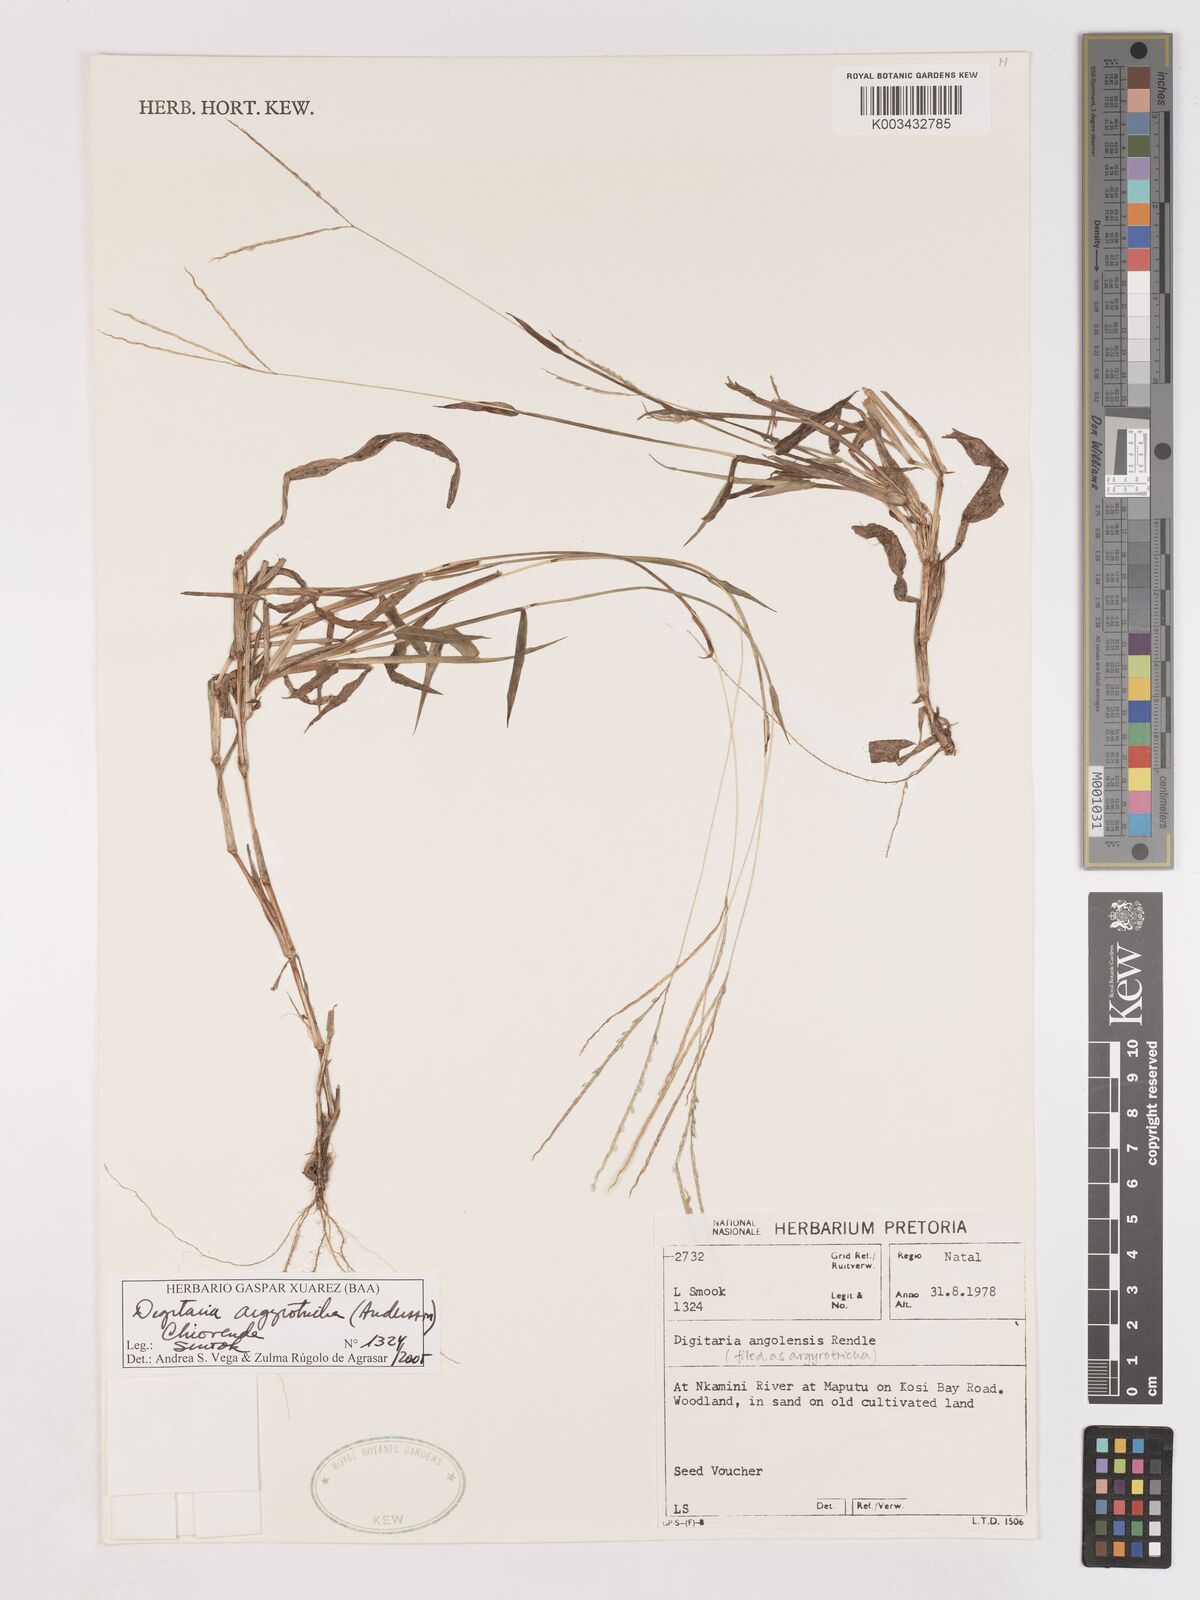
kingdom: Plantae
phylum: Tracheophyta
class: Liliopsida
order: Poales
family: Poaceae
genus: Digitaria
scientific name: Digitaria argyrotricha
